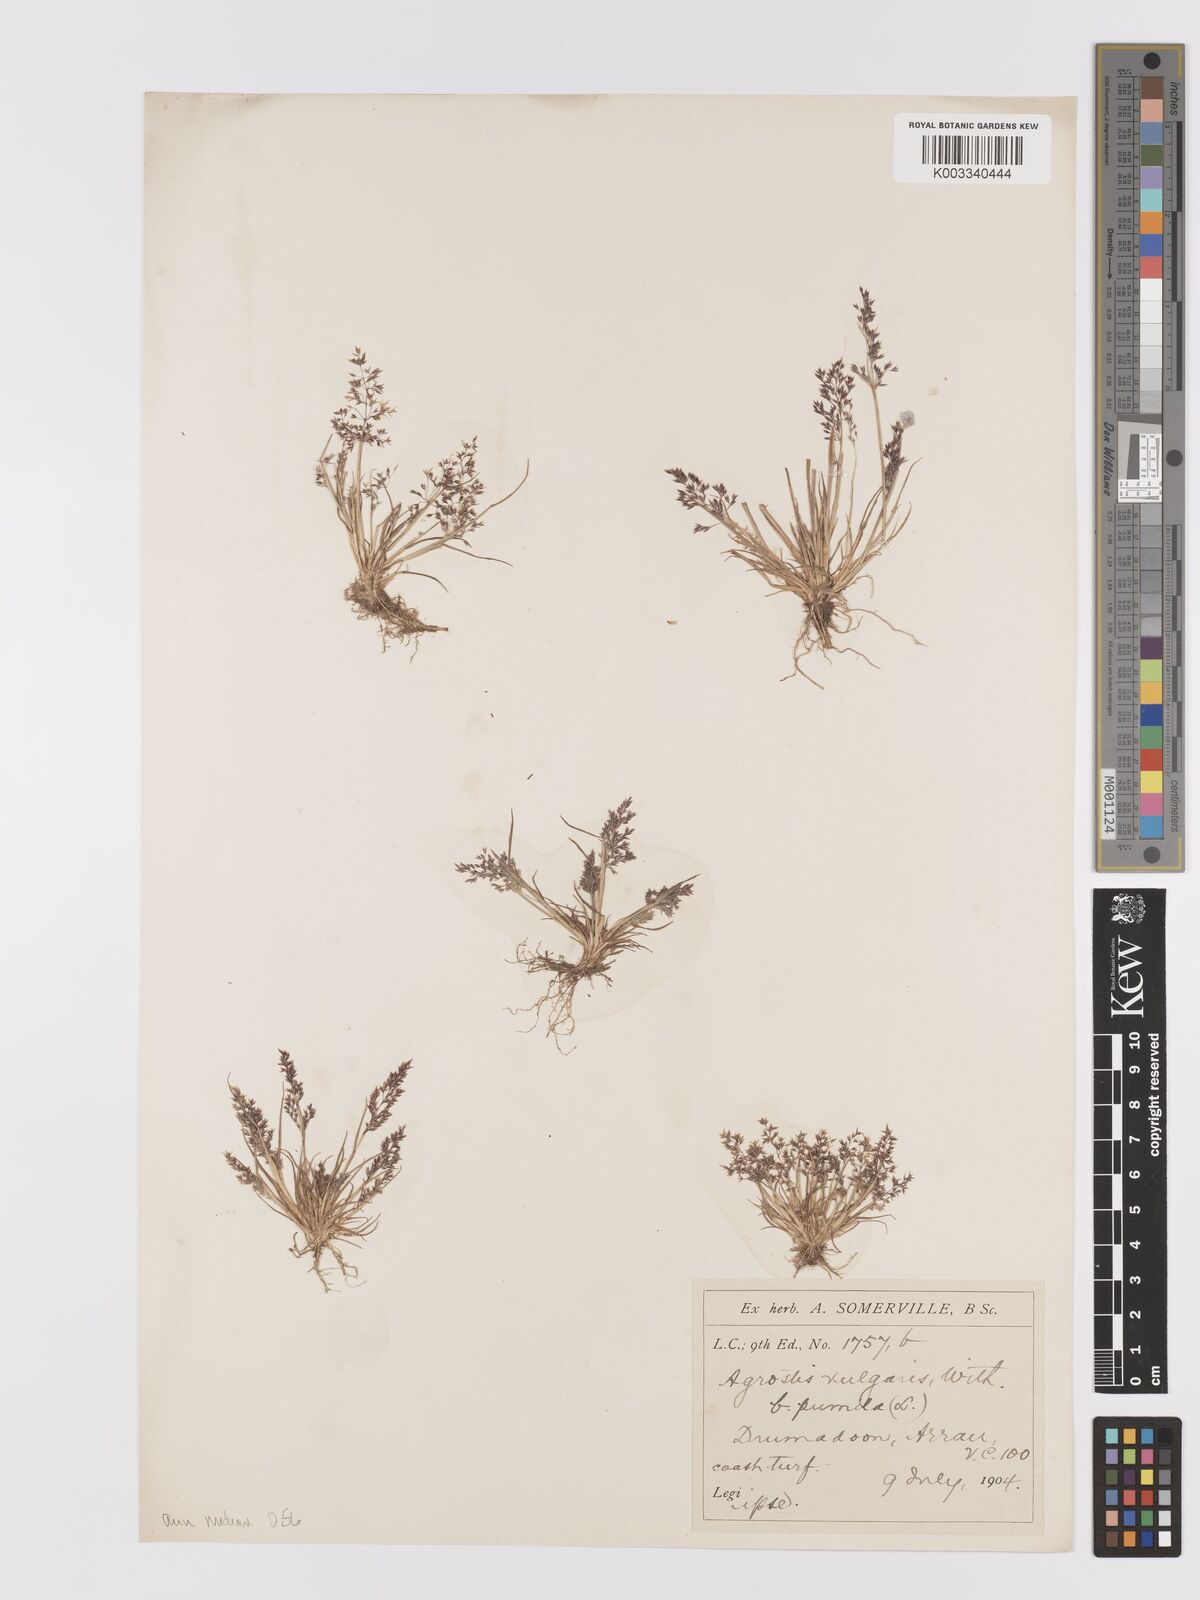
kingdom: Plantae
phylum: Tracheophyta
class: Liliopsida
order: Poales
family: Poaceae
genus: Agrostis
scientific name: Agrostis capillaris
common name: Colonial bentgrass
